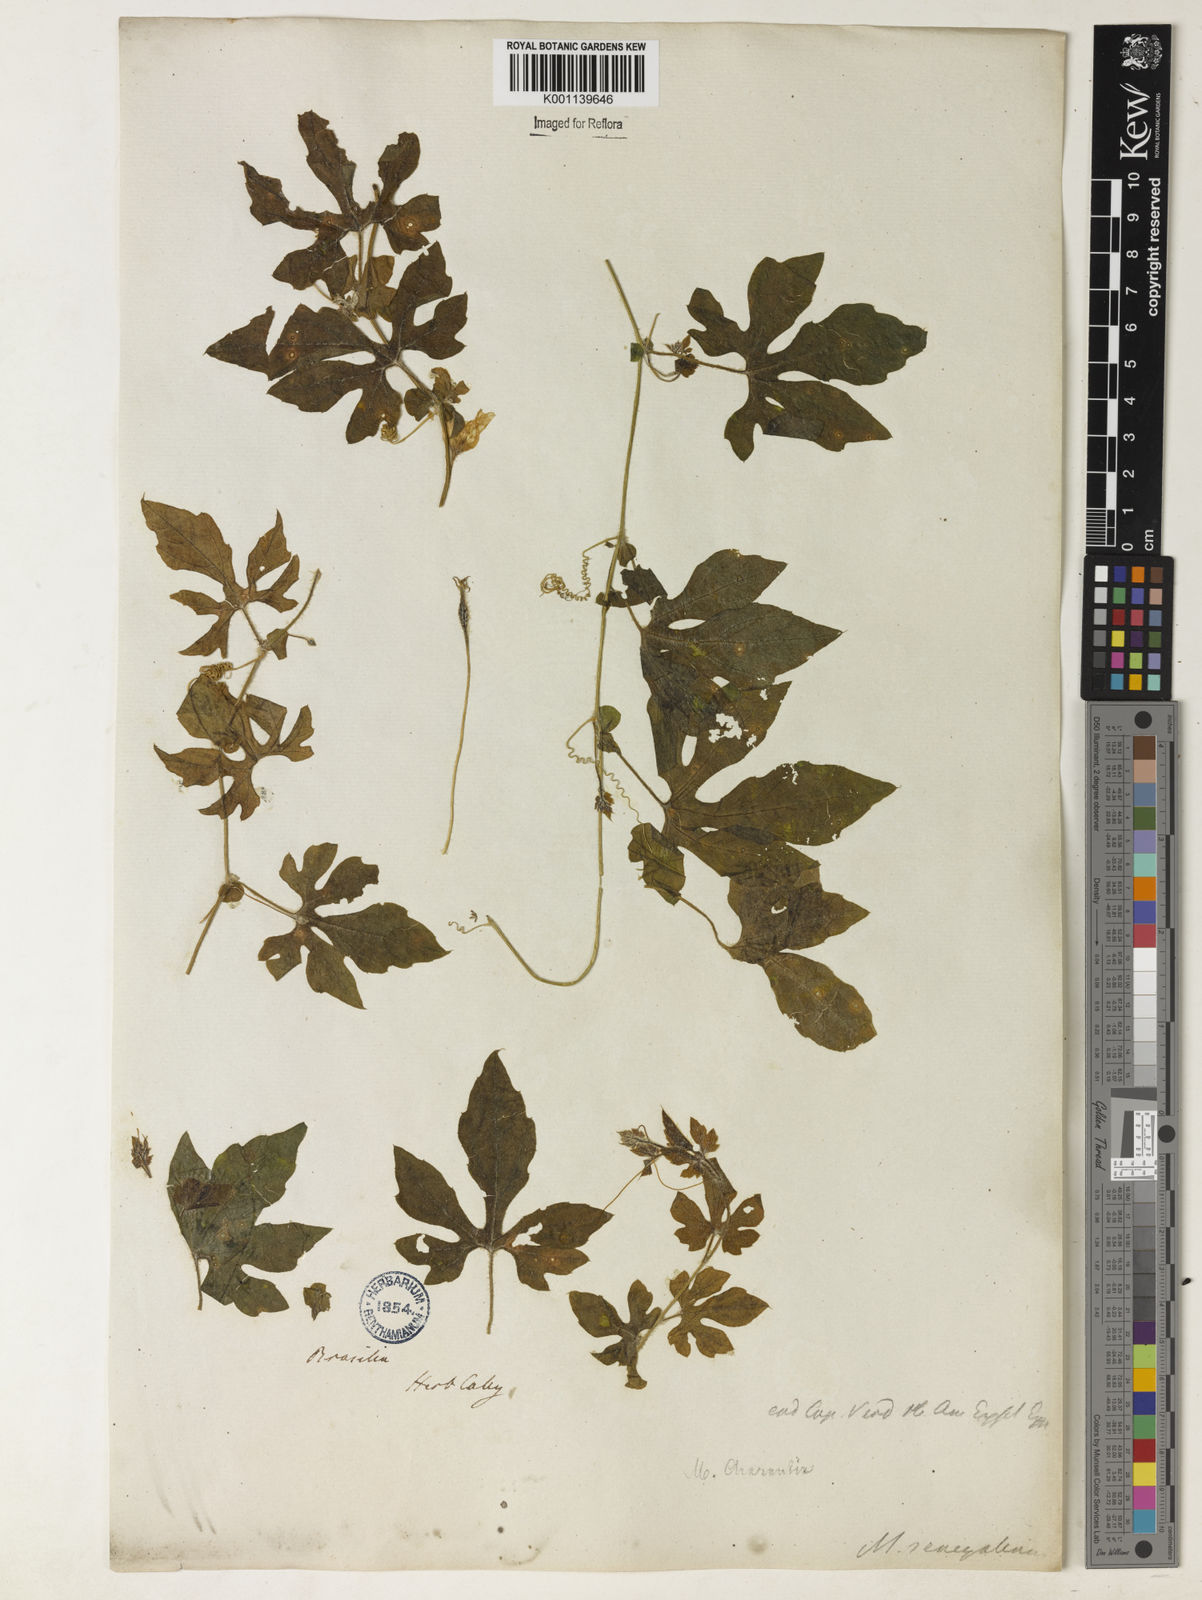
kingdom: Plantae
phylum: Tracheophyta
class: Magnoliopsida
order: Cucurbitales
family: Cucurbitaceae
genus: Momordica
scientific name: Momordica charantia
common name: Balsampear
